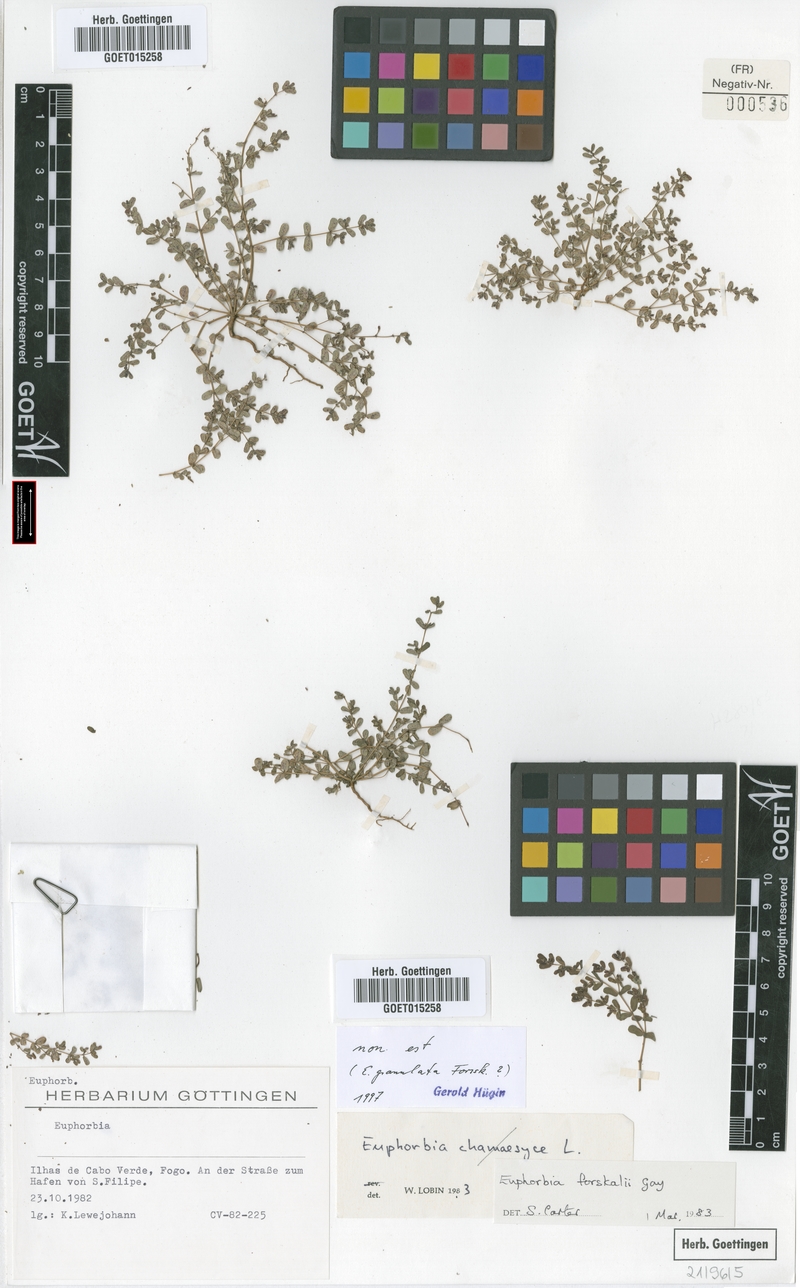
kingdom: Plantae
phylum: Tracheophyta
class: Magnoliopsida
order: Malpighiales
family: Euphorbiaceae
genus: Euphorbia
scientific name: Euphorbia granulata
